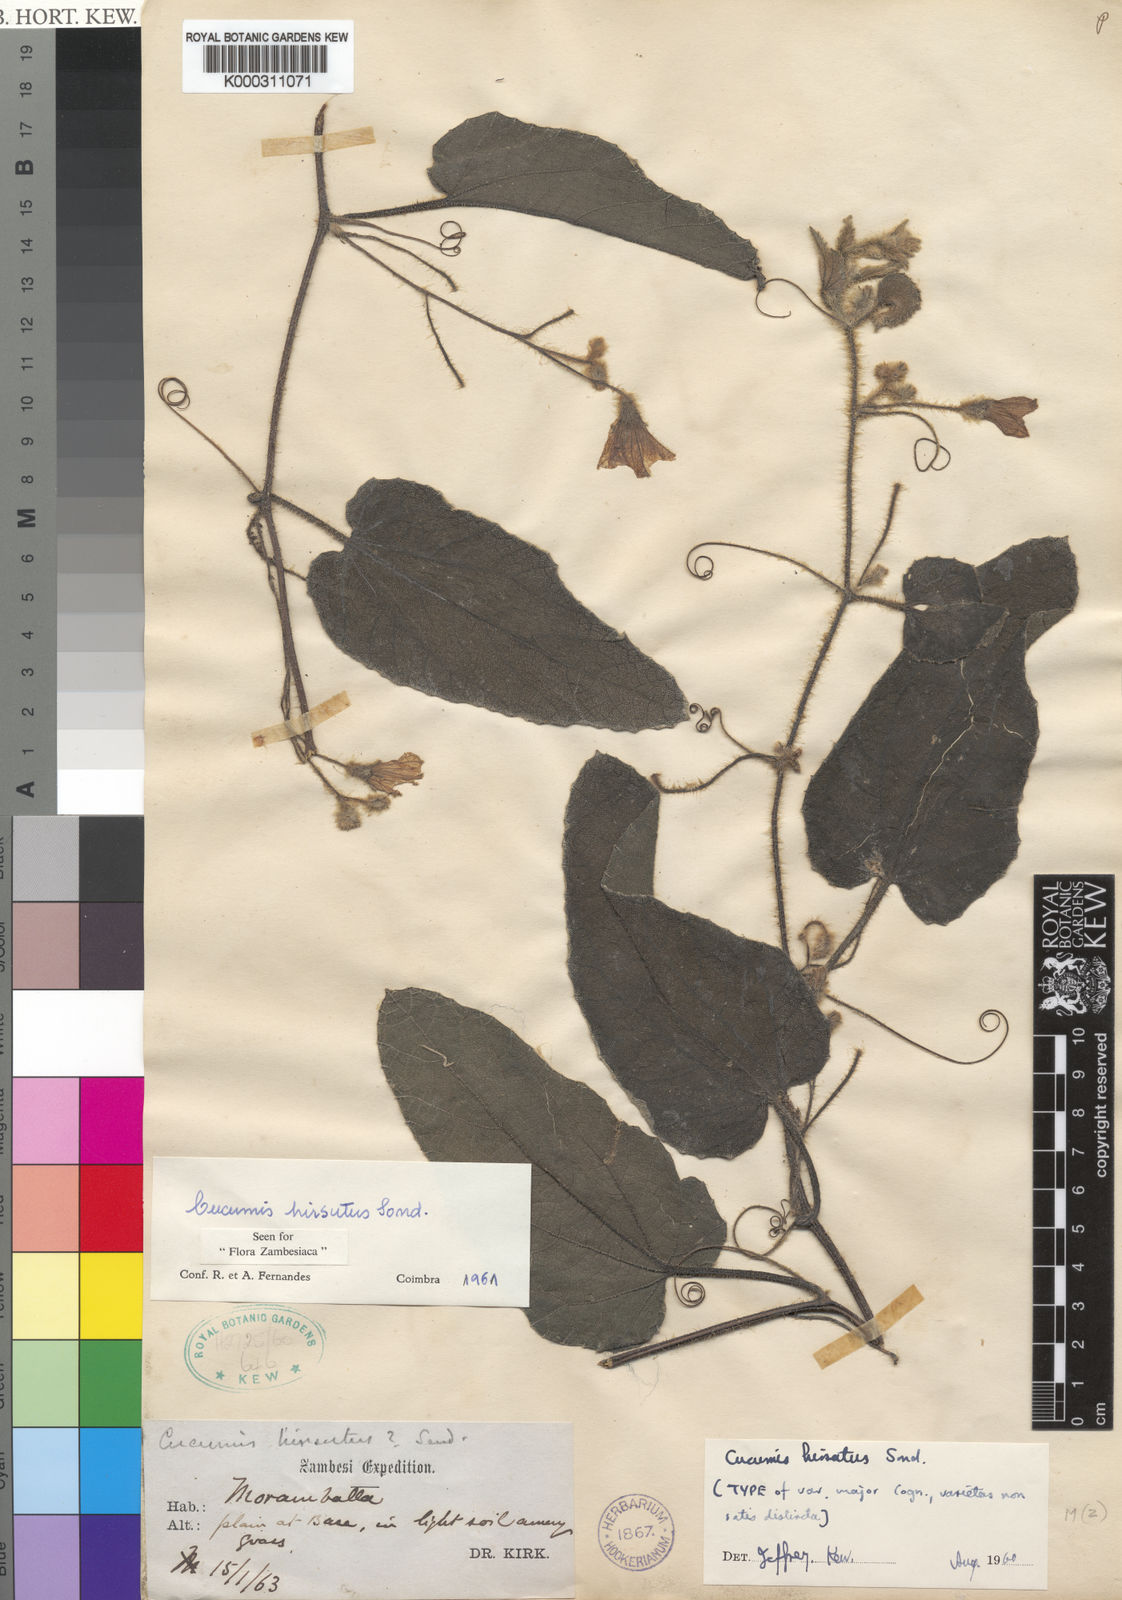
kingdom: Plantae
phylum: Tracheophyta
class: Magnoliopsida
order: Cucurbitales
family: Cucurbitaceae
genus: Cucumis
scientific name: Cucumis hirsutus
